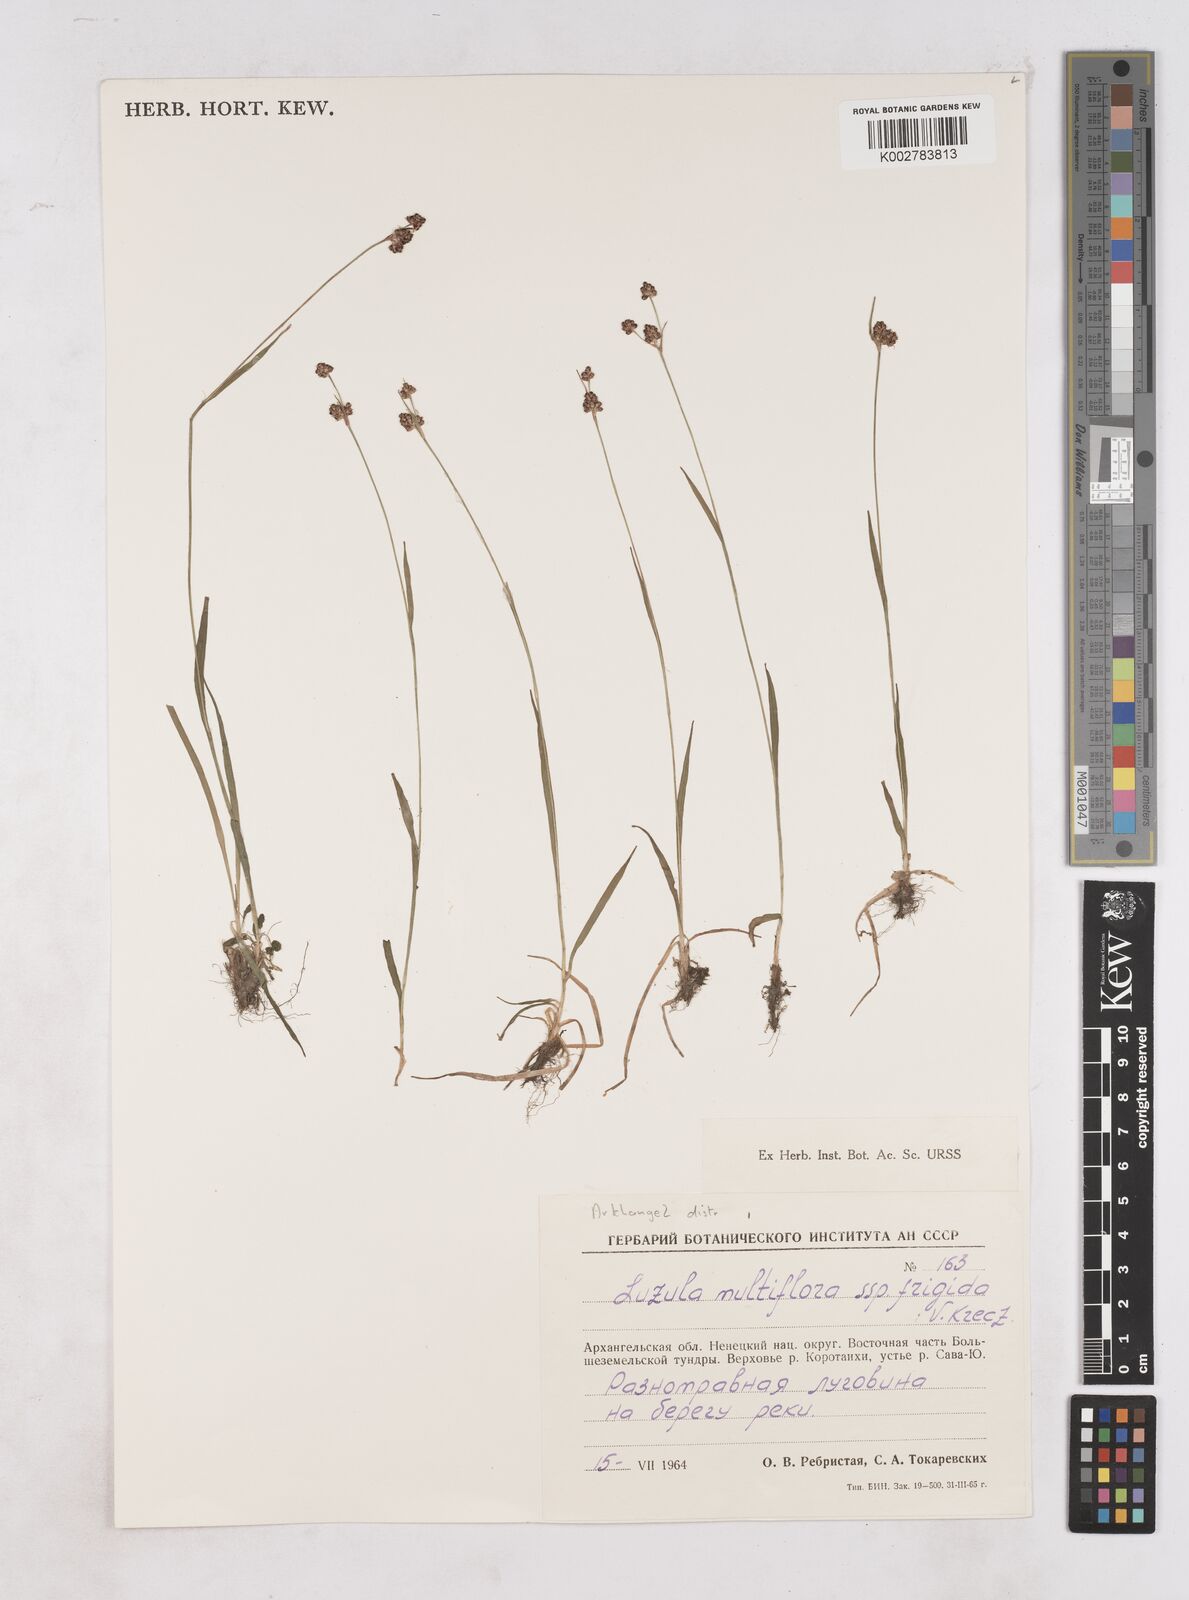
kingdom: Plantae
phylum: Tracheophyta
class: Liliopsida
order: Poales
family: Juncaceae
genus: Luzula
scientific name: Luzula campestris
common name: Field wood-rush
